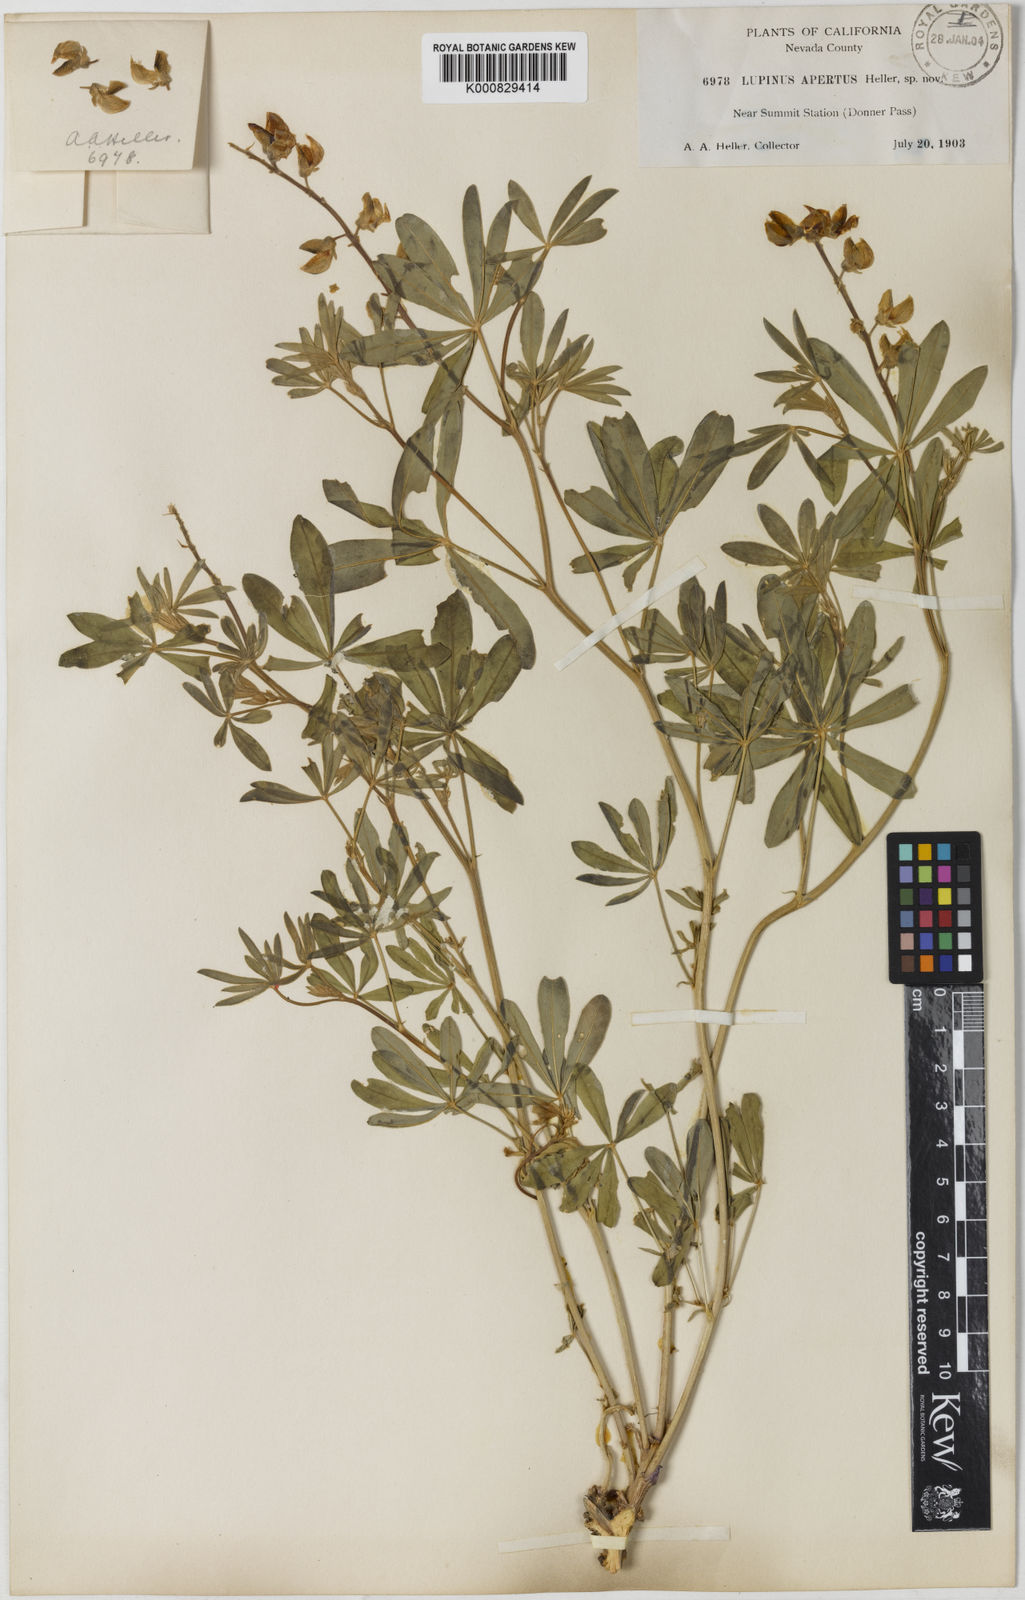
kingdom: Plantae
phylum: Tracheophyta
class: Magnoliopsida
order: Fabales
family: Fabaceae
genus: Lupinus
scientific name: Lupinus apertus
